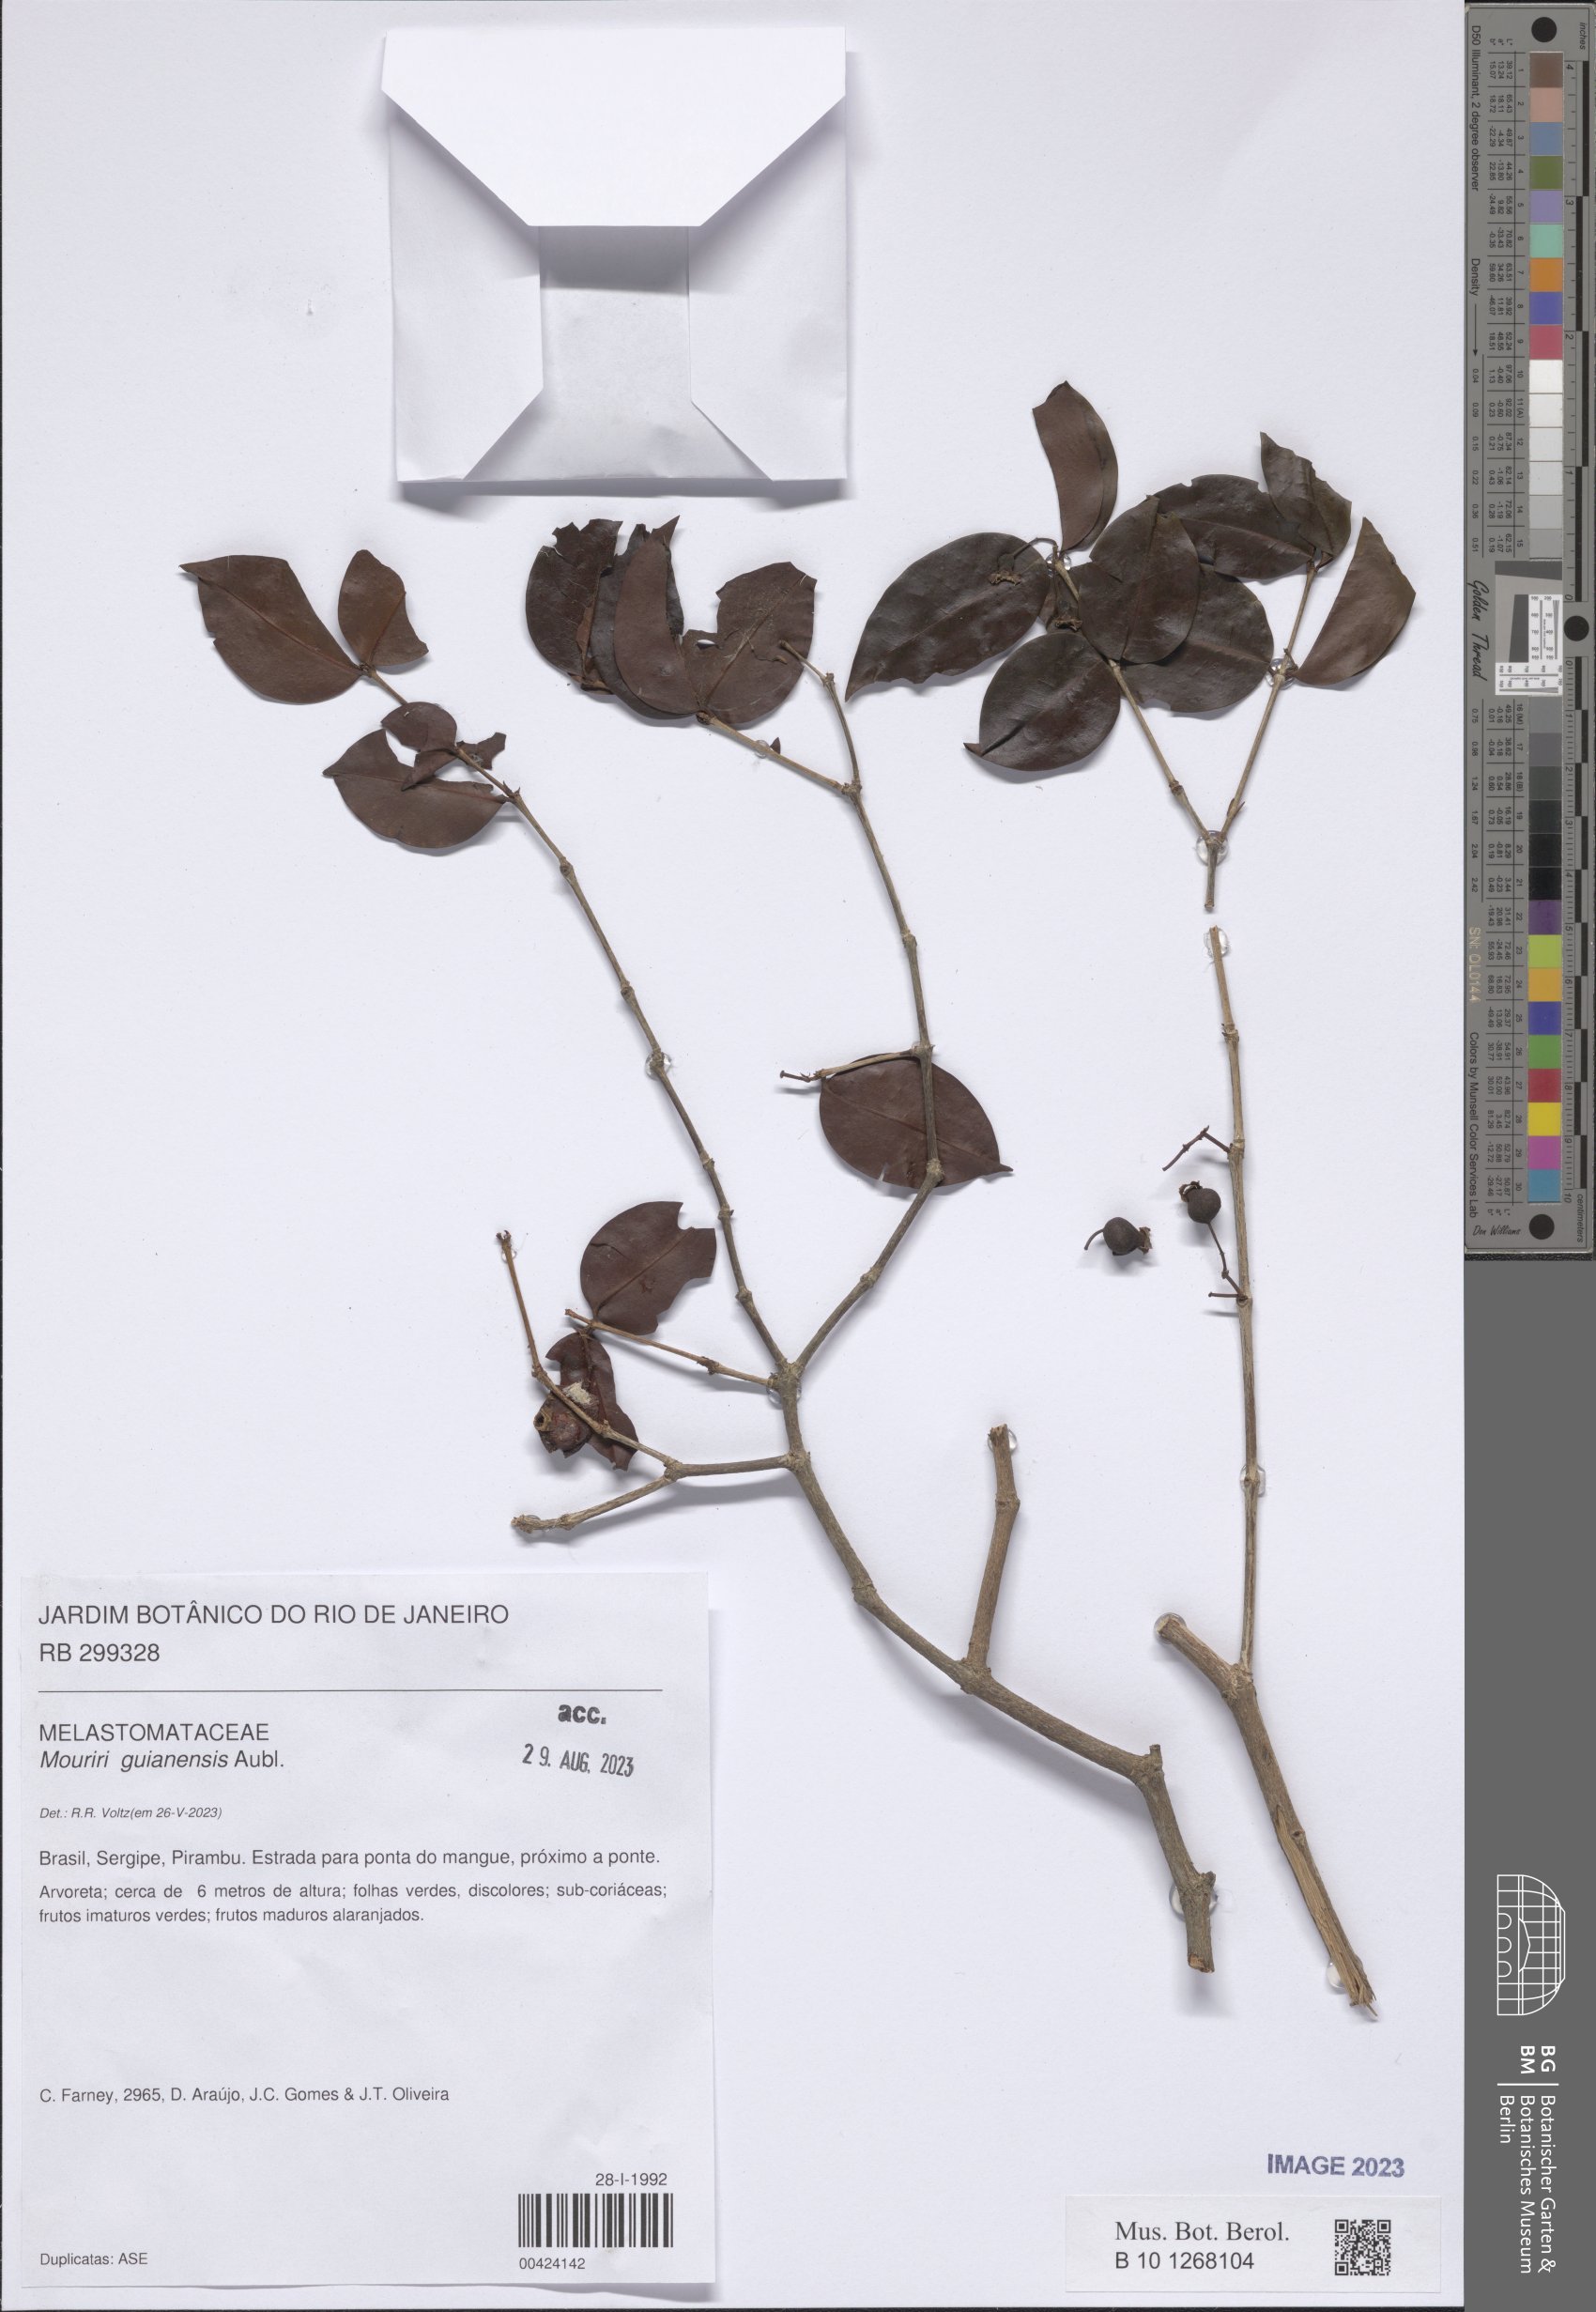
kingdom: Plantae
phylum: Tracheophyta
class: Magnoliopsida
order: Myrtales
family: Melastomataceae
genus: Mouriri
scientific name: Mouriri guianensis
